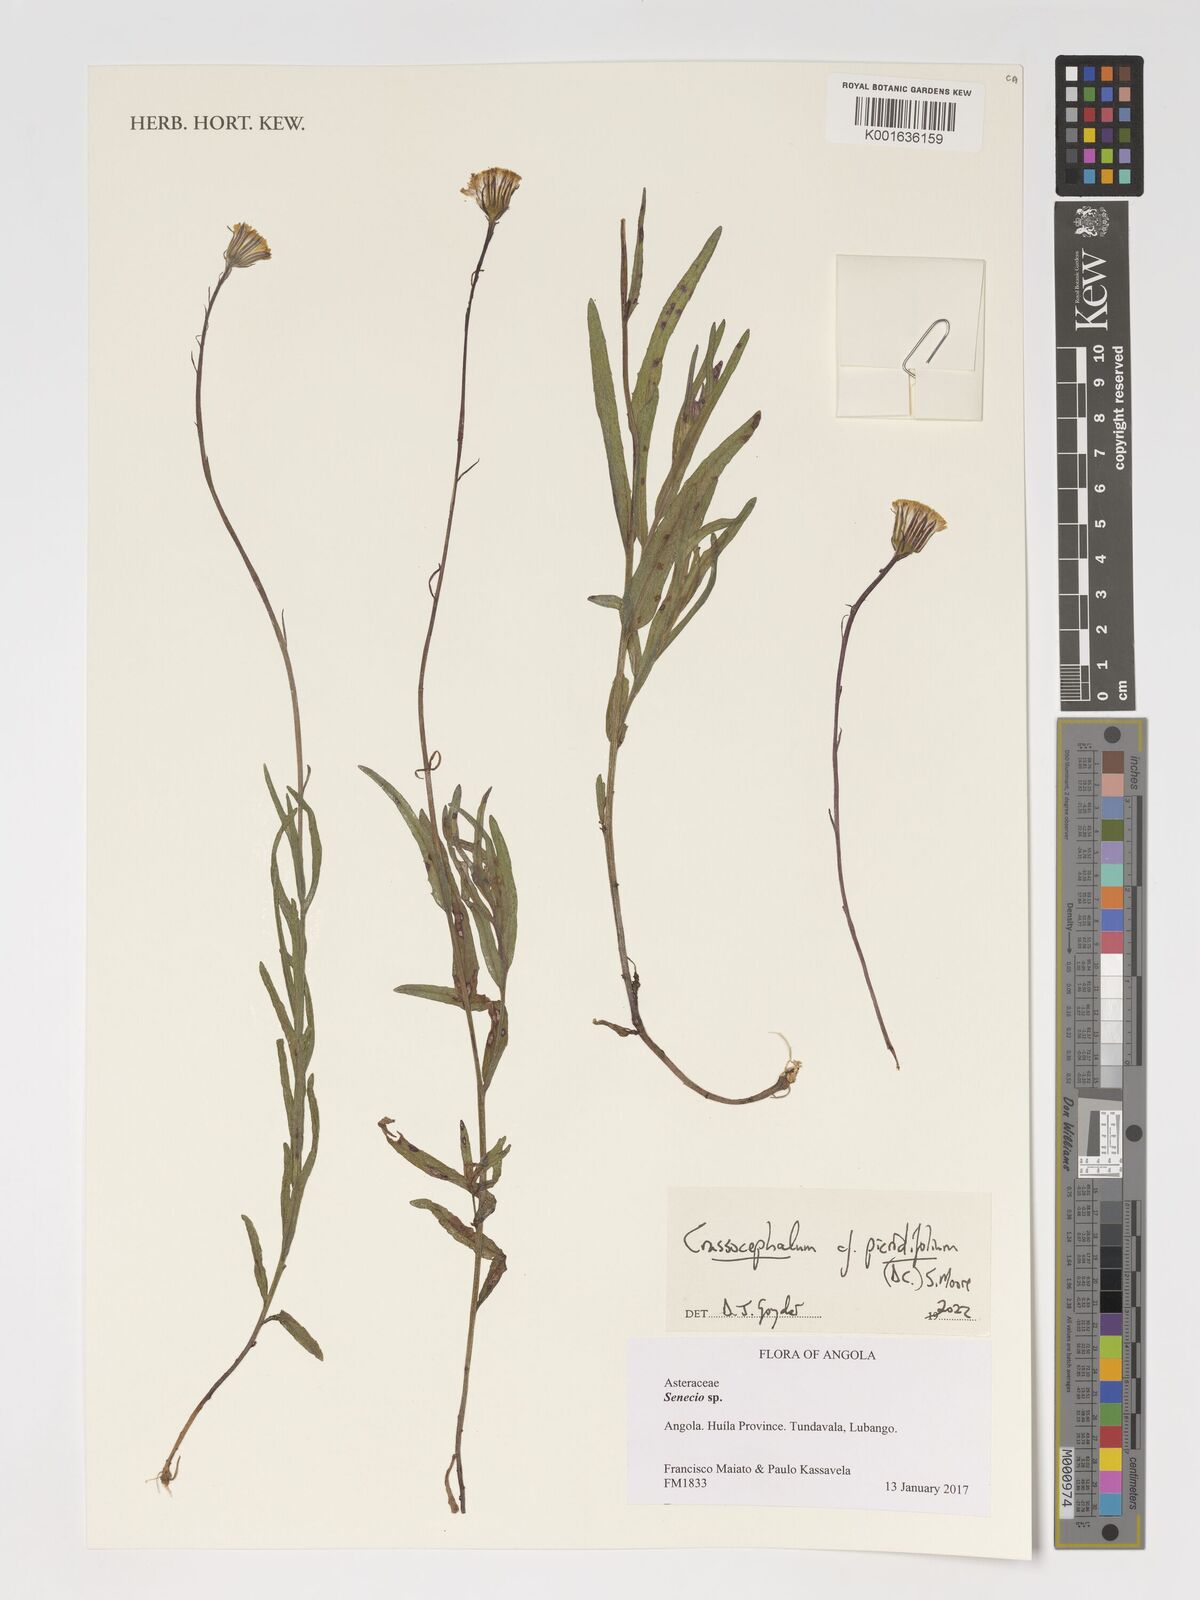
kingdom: Plantae
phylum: Tracheophyta
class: Magnoliopsida
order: Asterales
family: Asteraceae
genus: Crassocephalum
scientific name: Crassocephalum picridifolium
